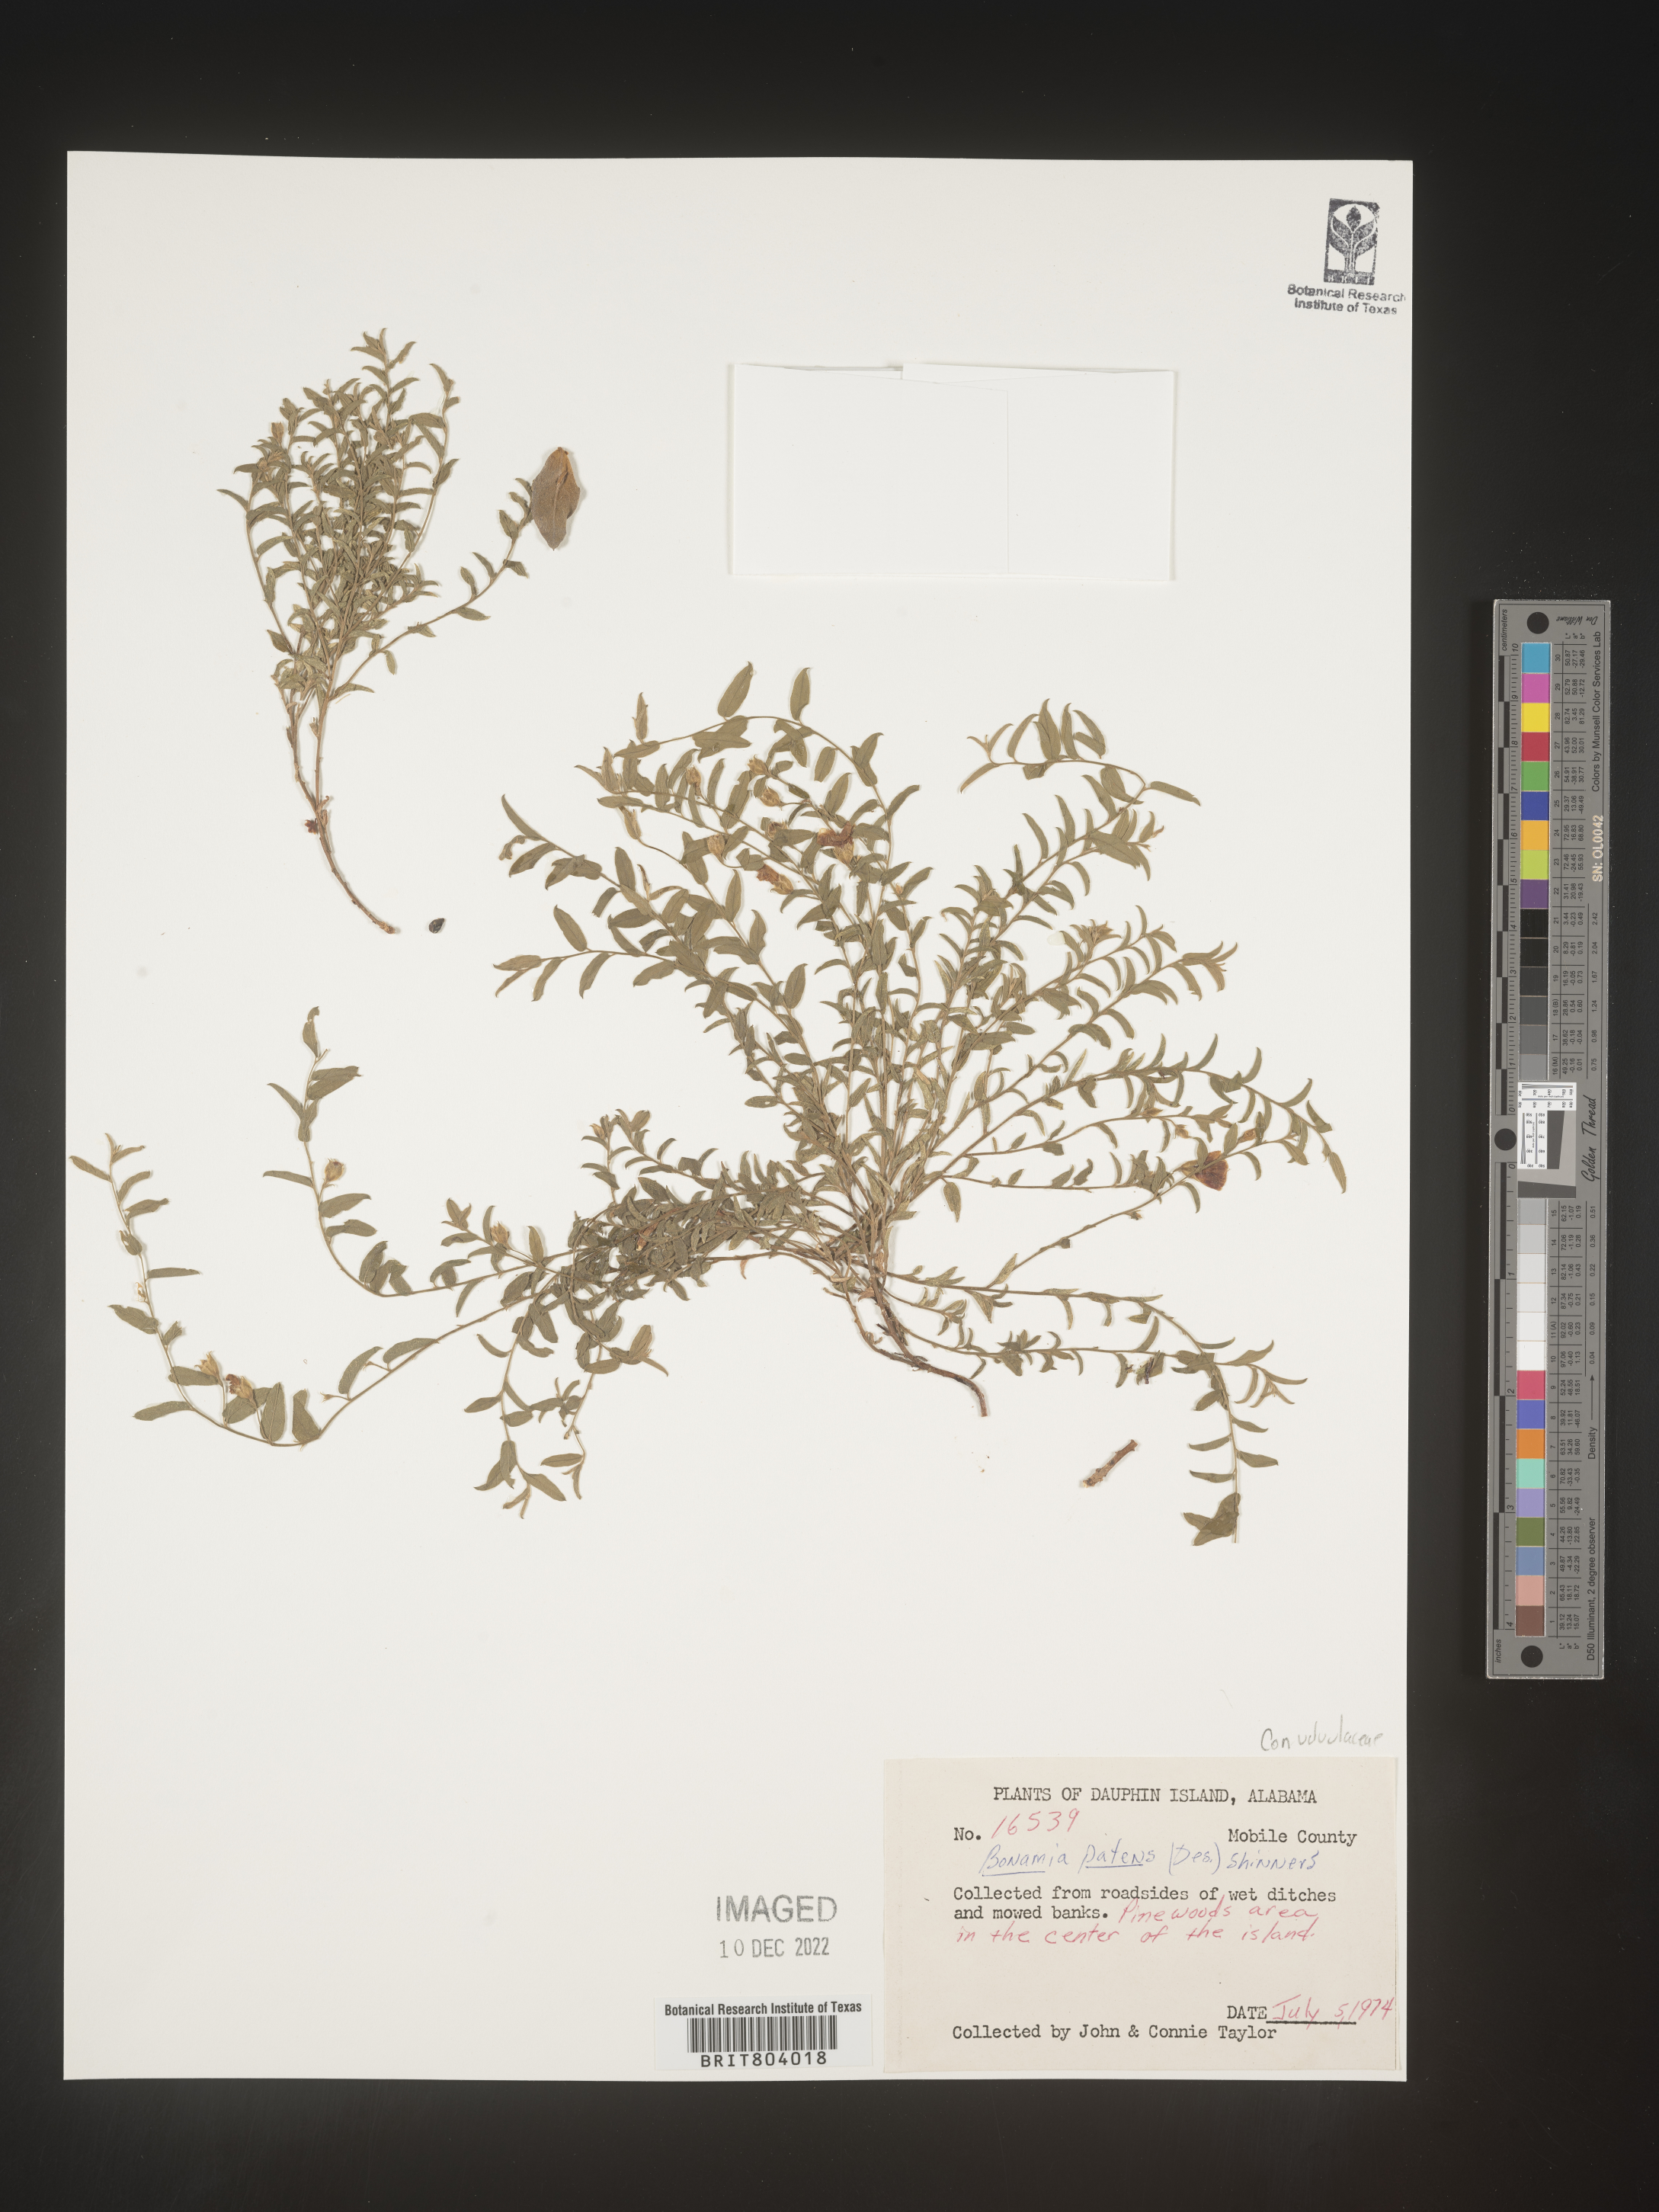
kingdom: Plantae
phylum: Tracheophyta
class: Magnoliopsida
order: Solanales
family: Convolvulaceae
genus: Bonamia
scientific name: Bonamia
